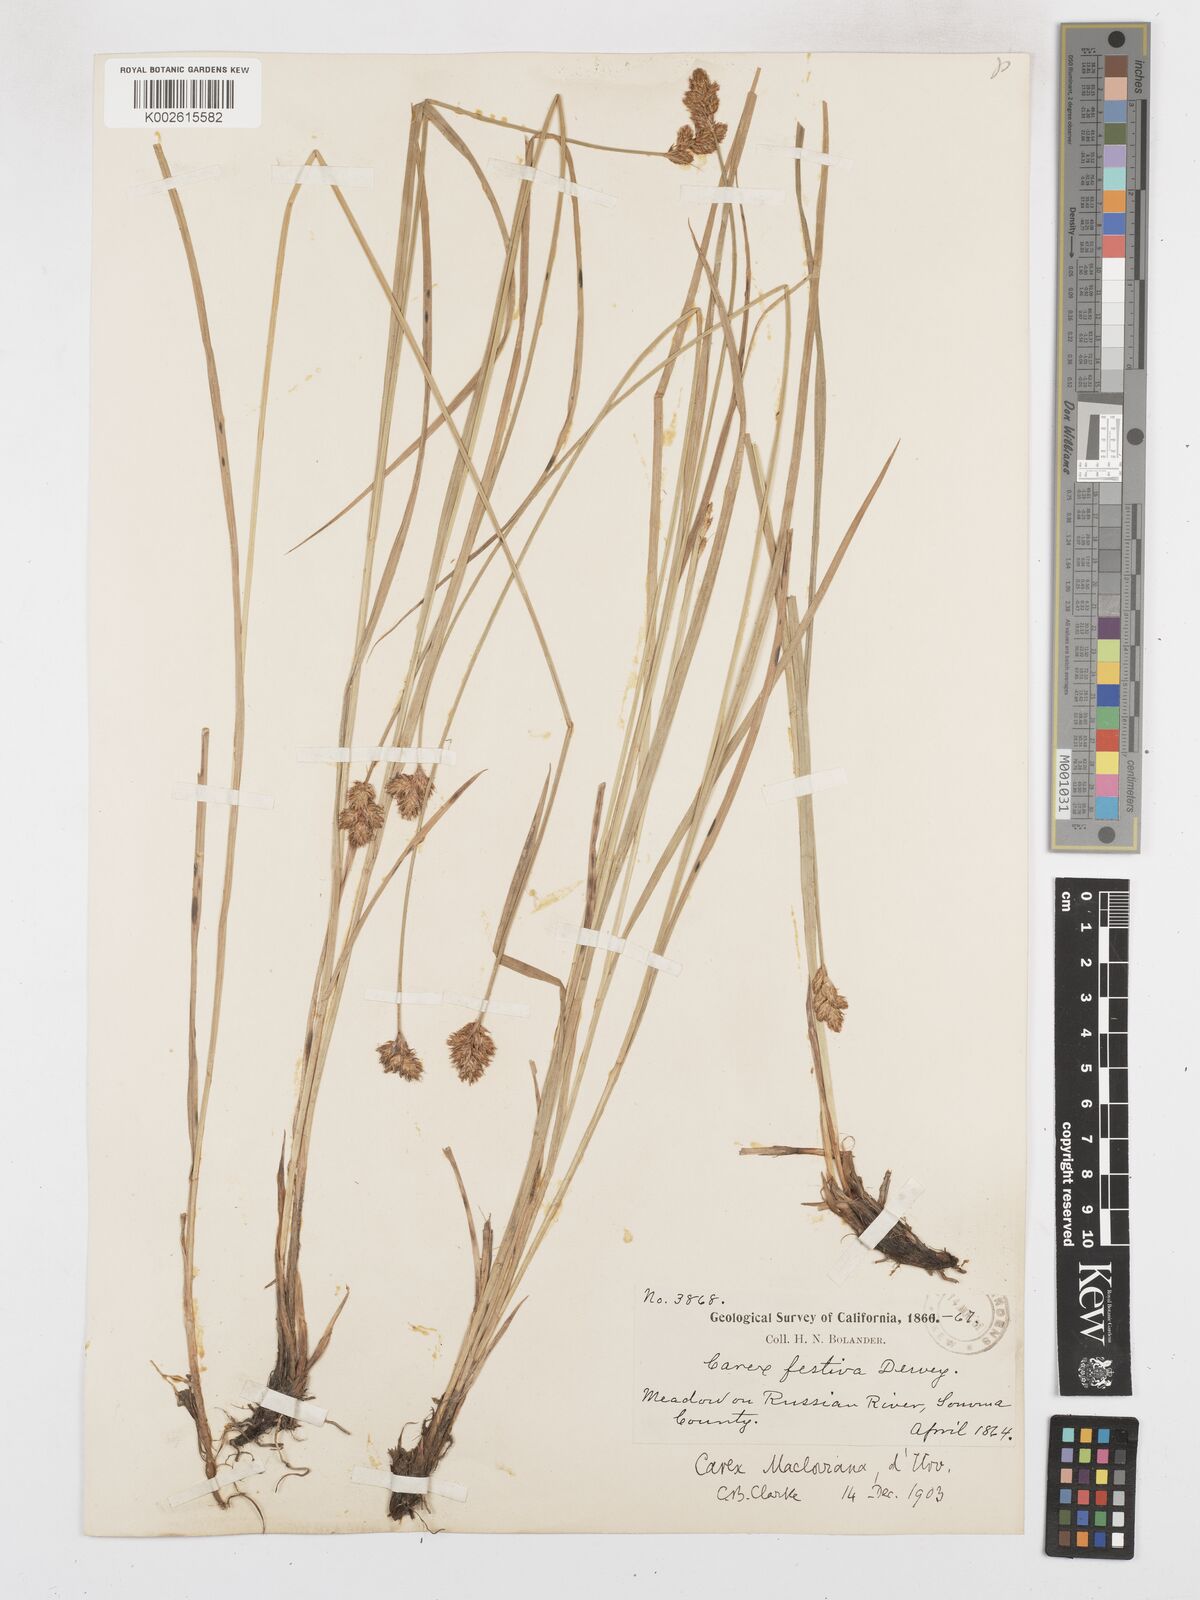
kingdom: Plantae
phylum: Tracheophyta
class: Liliopsida
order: Poales
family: Cyperaceae
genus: Carex
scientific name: Carex macloviana
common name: Falkland island sedge
